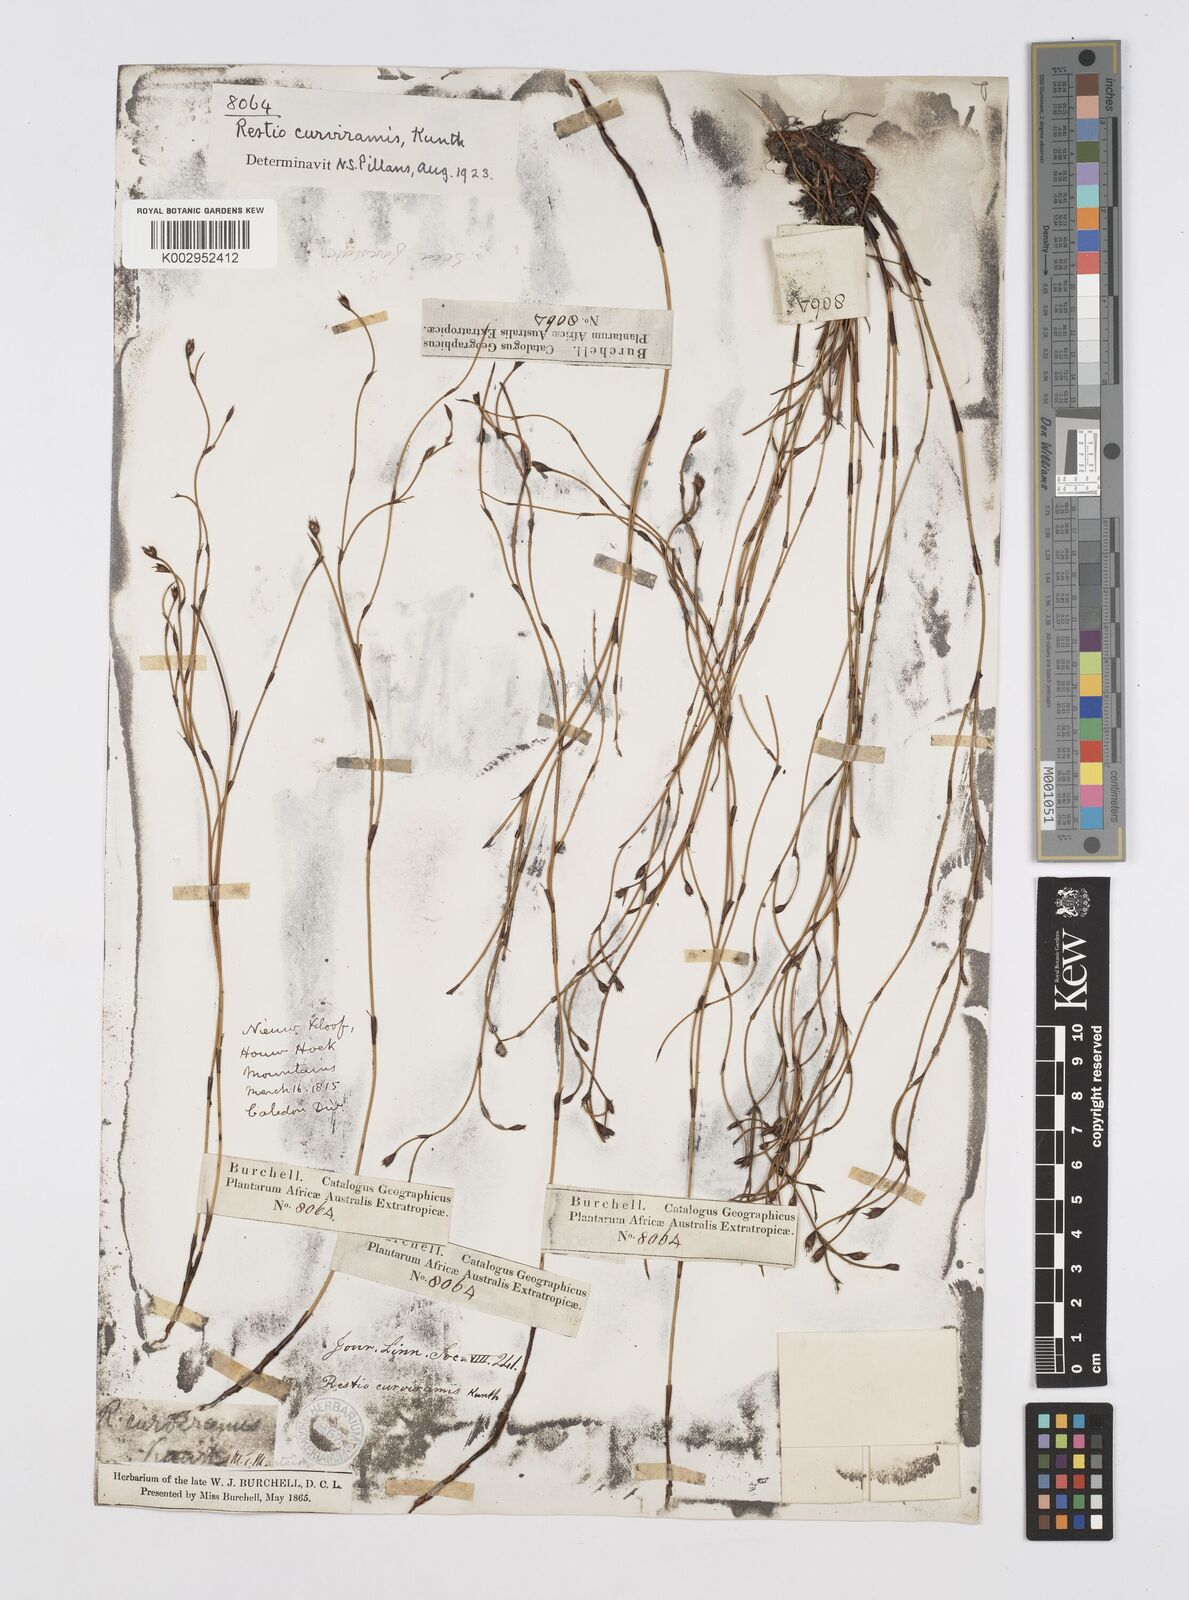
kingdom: Plantae
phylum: Tracheophyta
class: Liliopsida
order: Poales
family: Restionaceae
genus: Restio
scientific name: Restio curviramis
